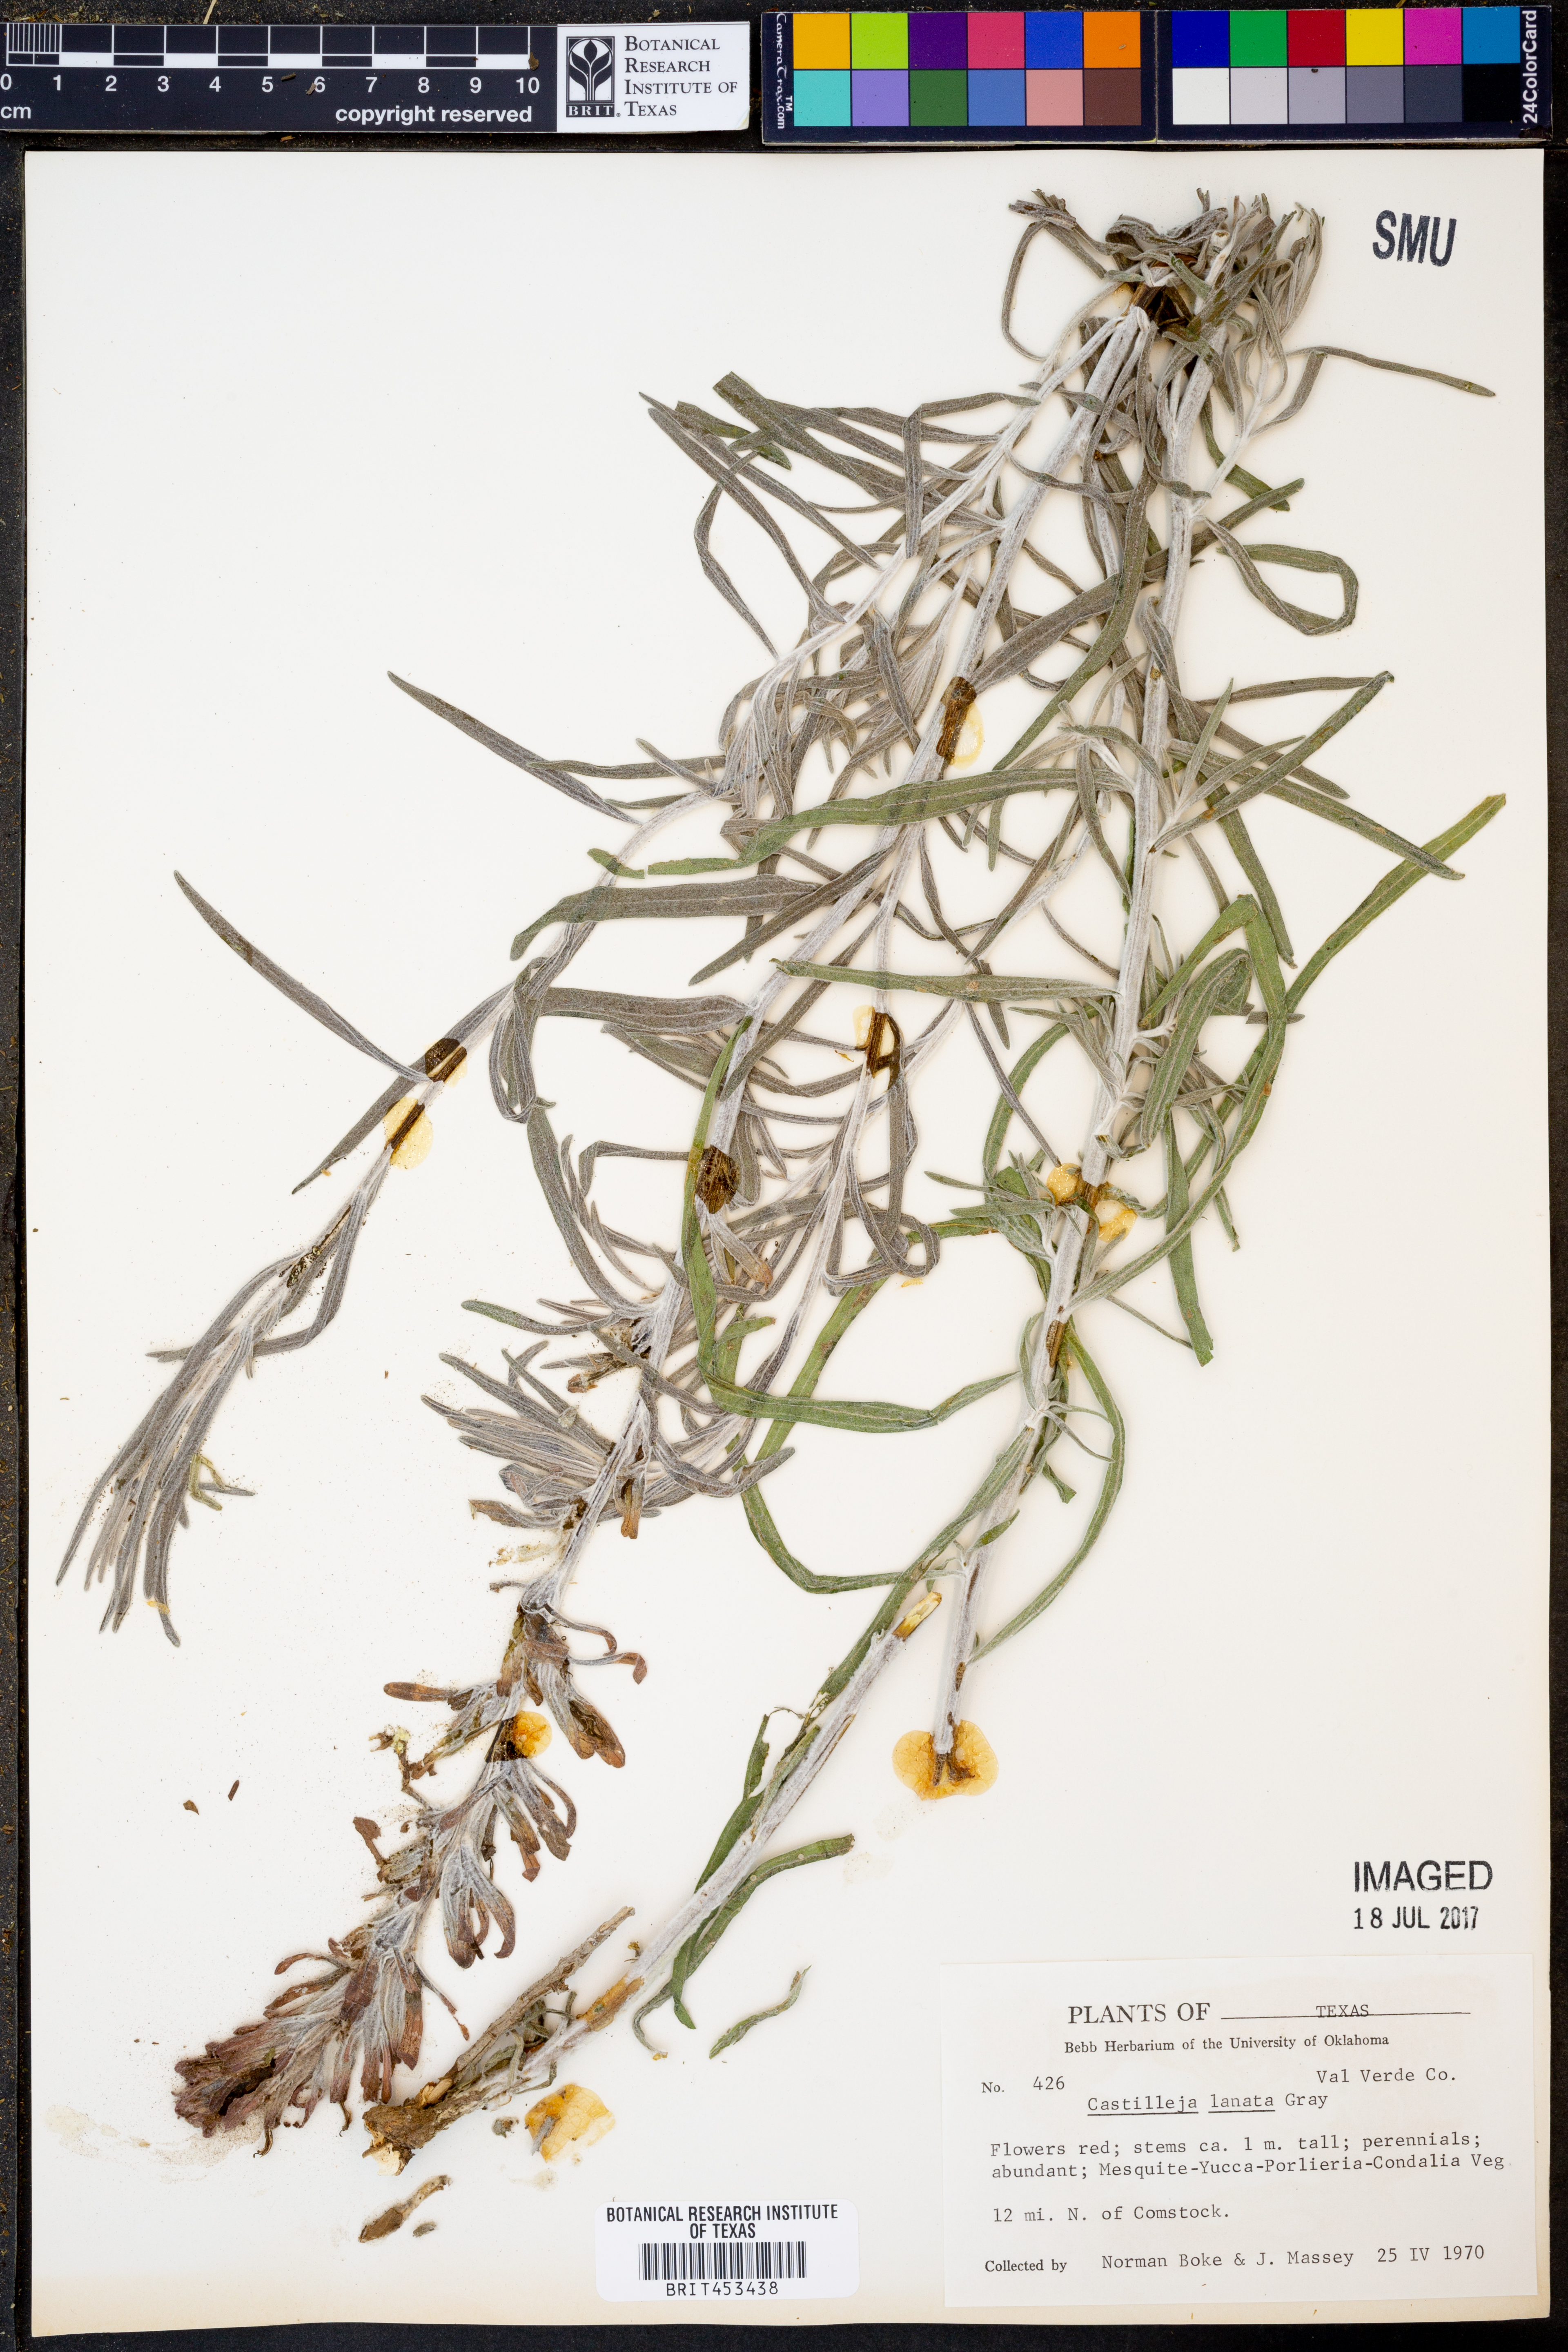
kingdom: Plantae
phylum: Tracheophyta
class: Magnoliopsida
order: Lamiales
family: Orobanchaceae
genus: Castilleja
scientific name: Castilleja lanata
